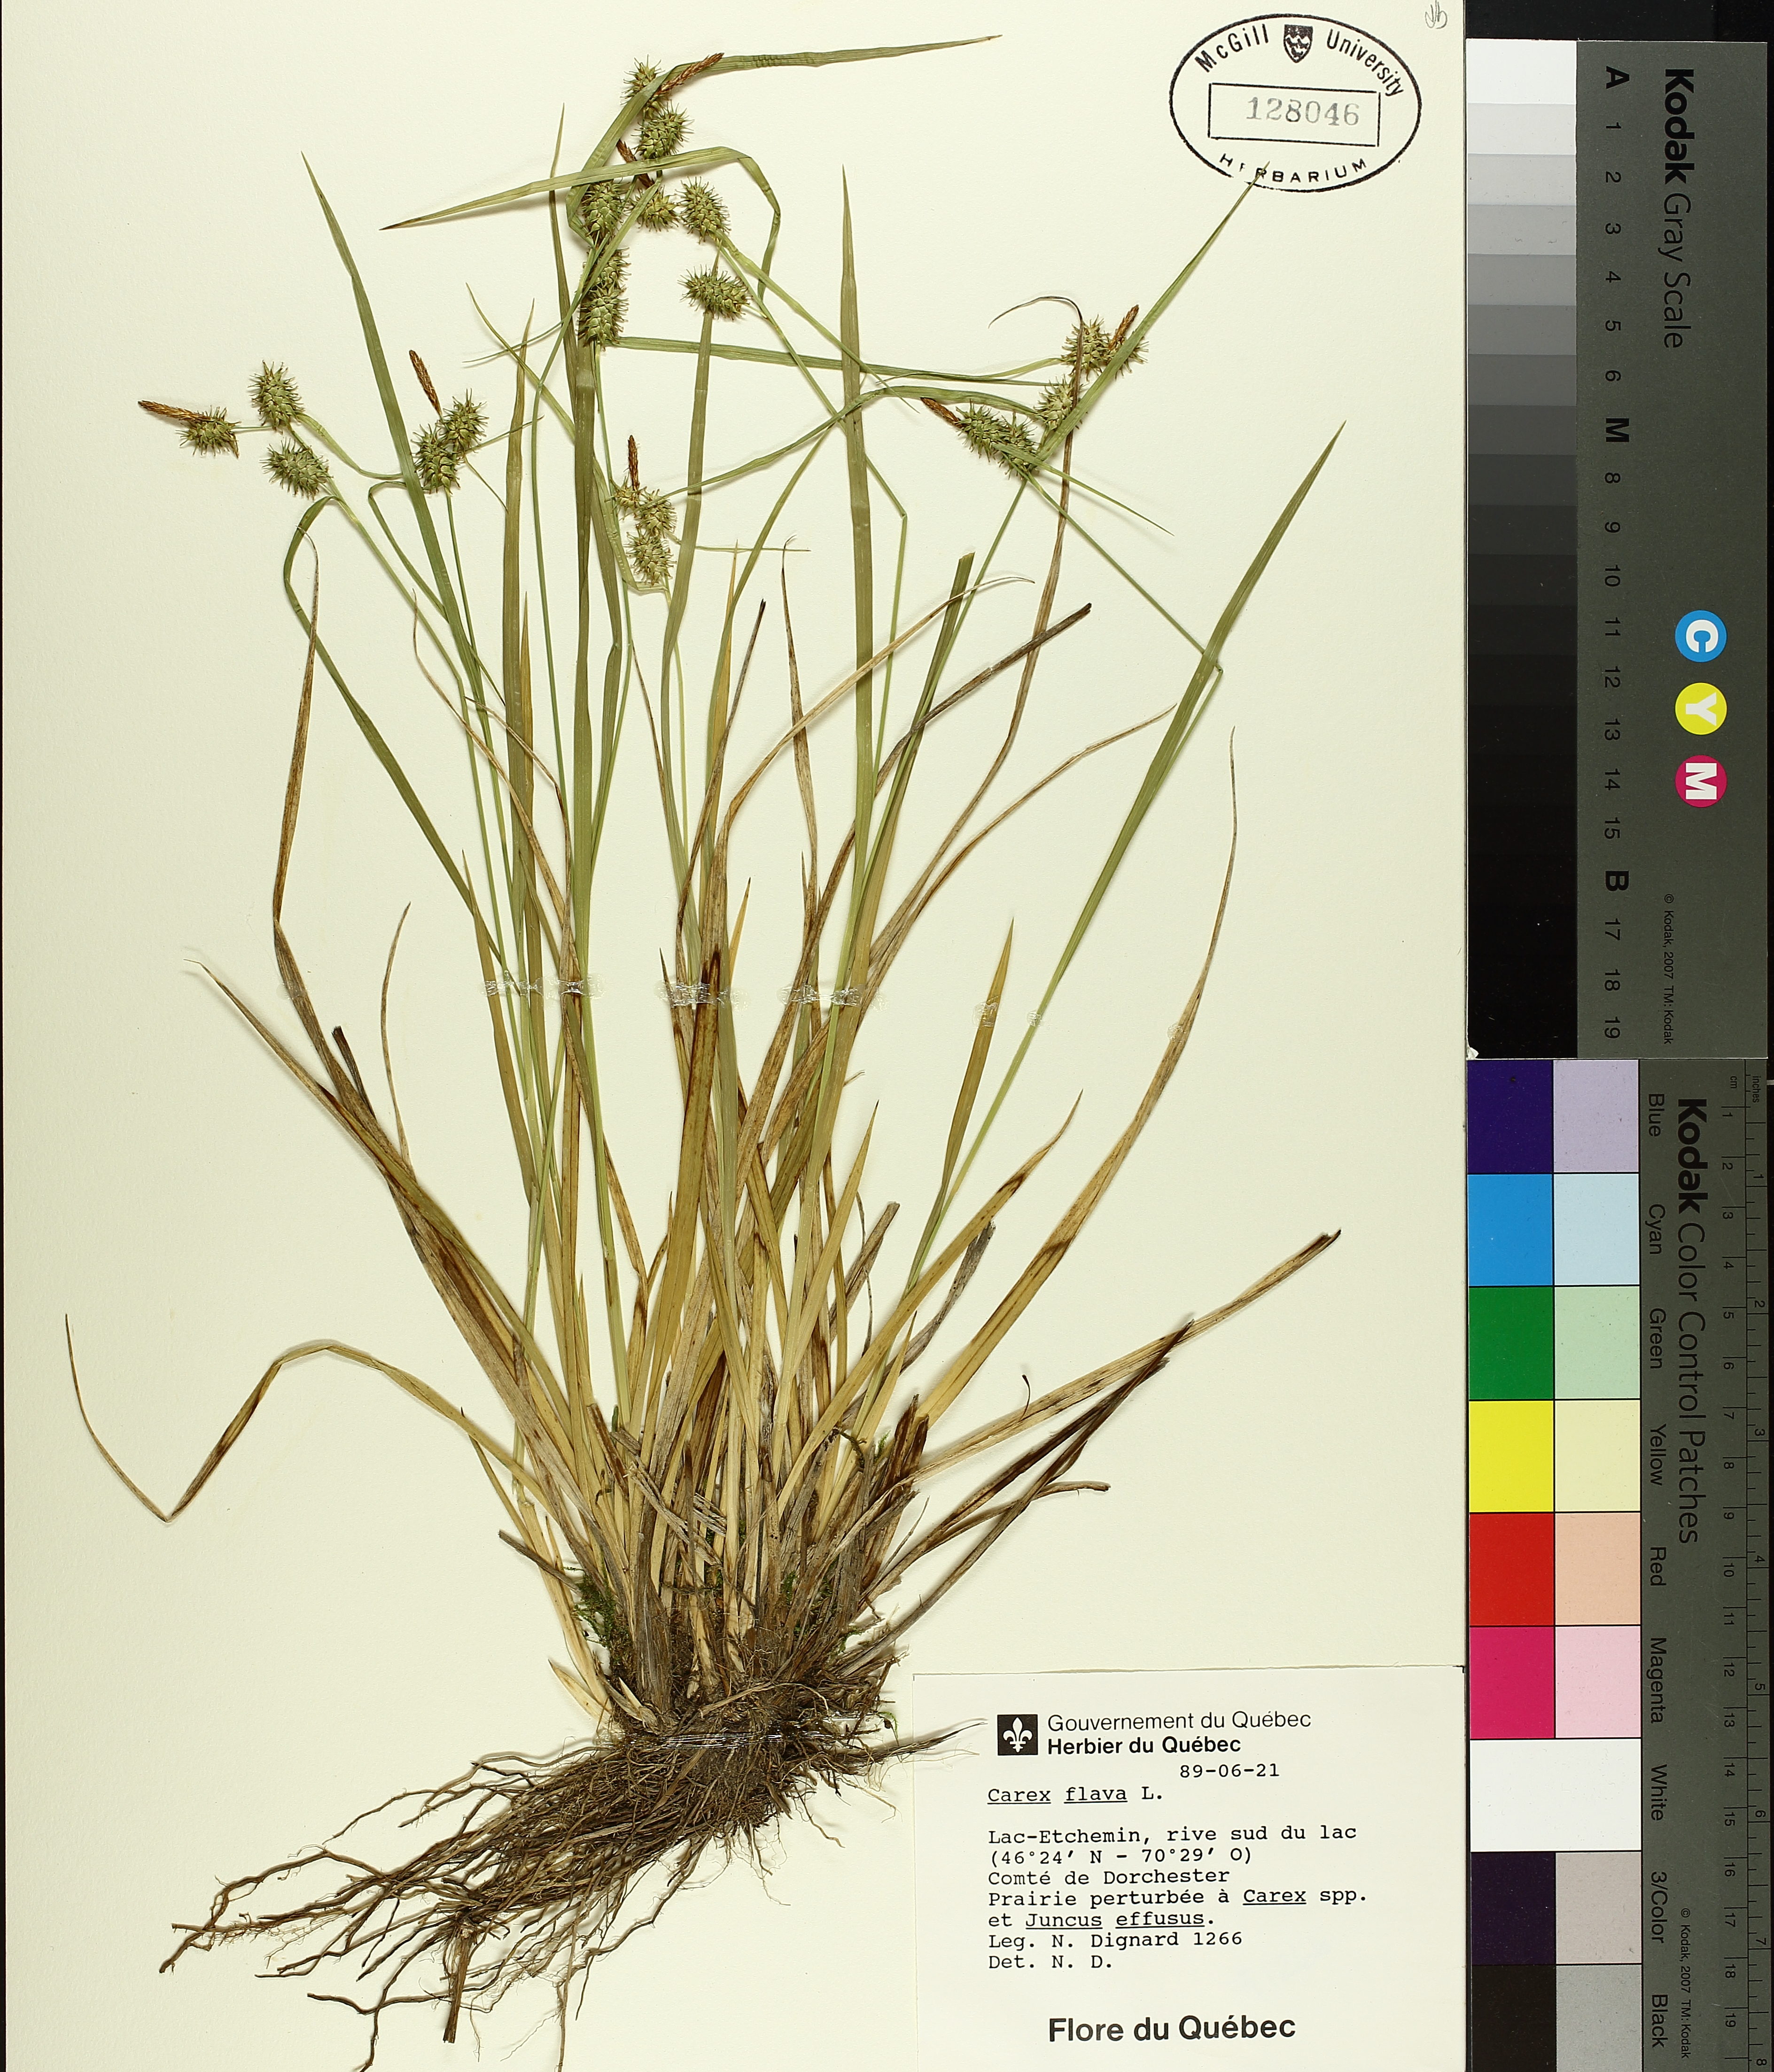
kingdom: Plantae
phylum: Tracheophyta
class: Liliopsida
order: Poales
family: Cyperaceae
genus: Carex
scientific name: Carex flava
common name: Large yellow-sedge
